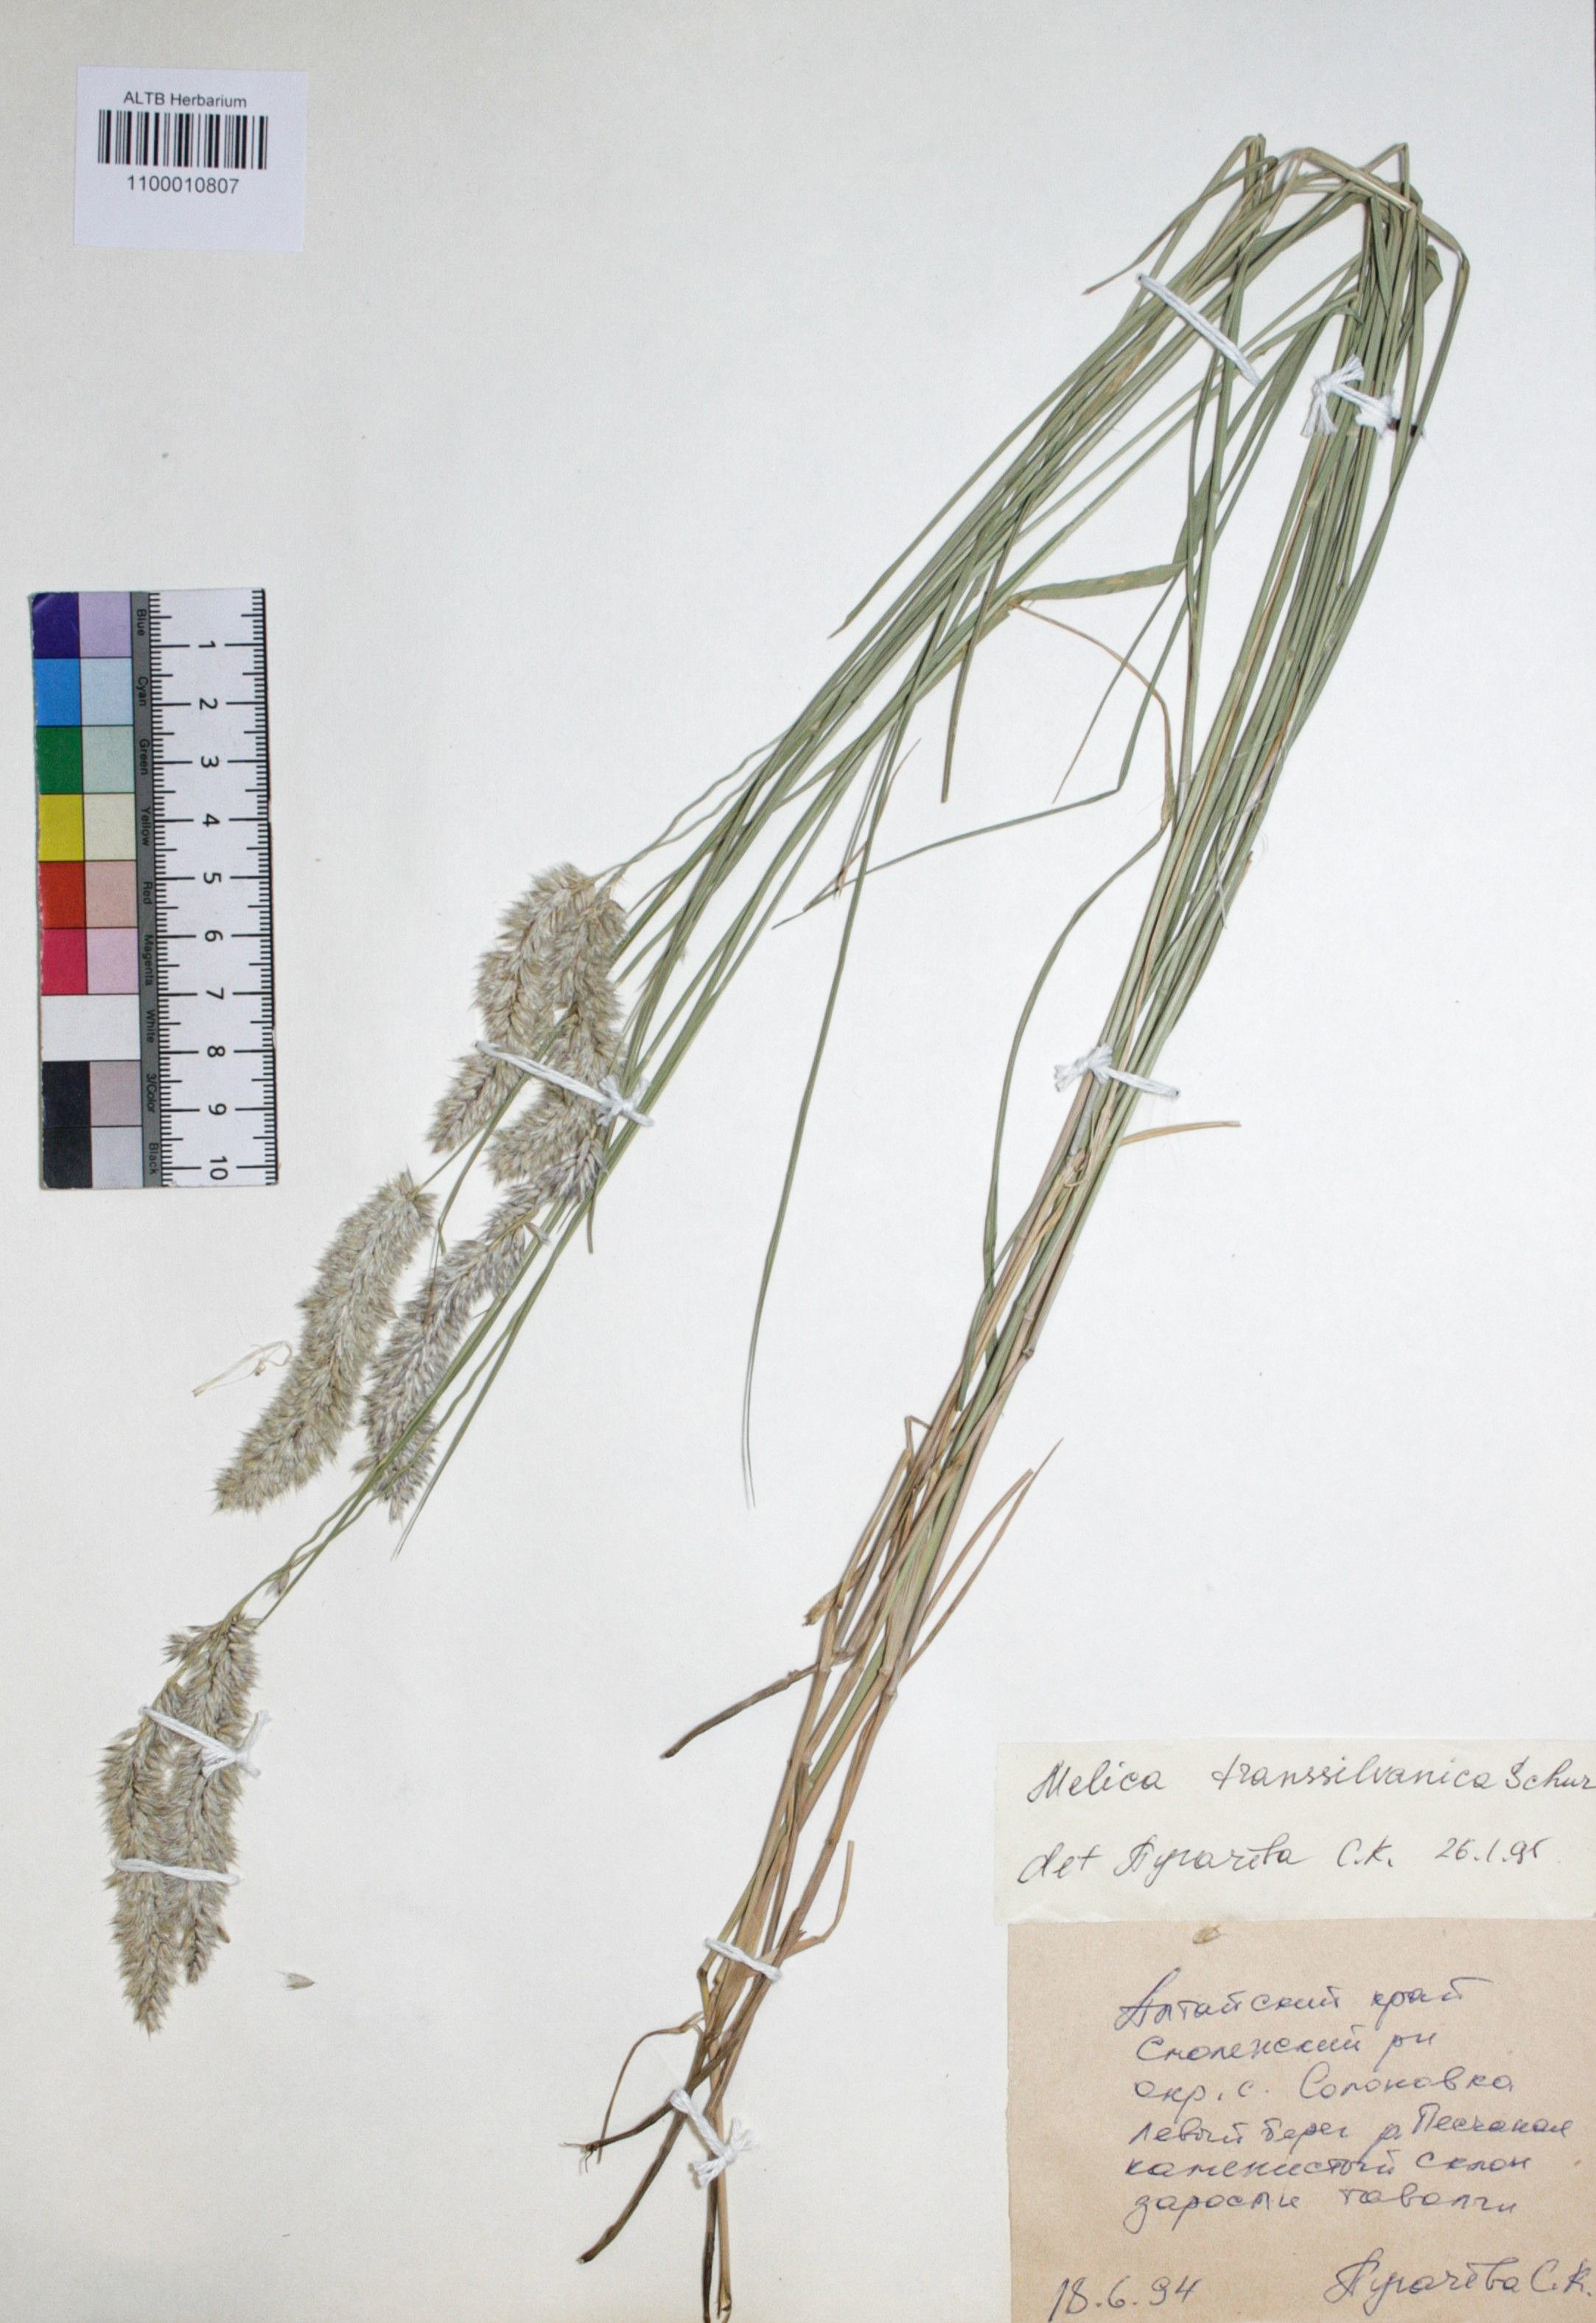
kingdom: Plantae
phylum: Tracheophyta
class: Liliopsida
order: Poales
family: Poaceae
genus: Melica
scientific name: Melica transsilvanica
